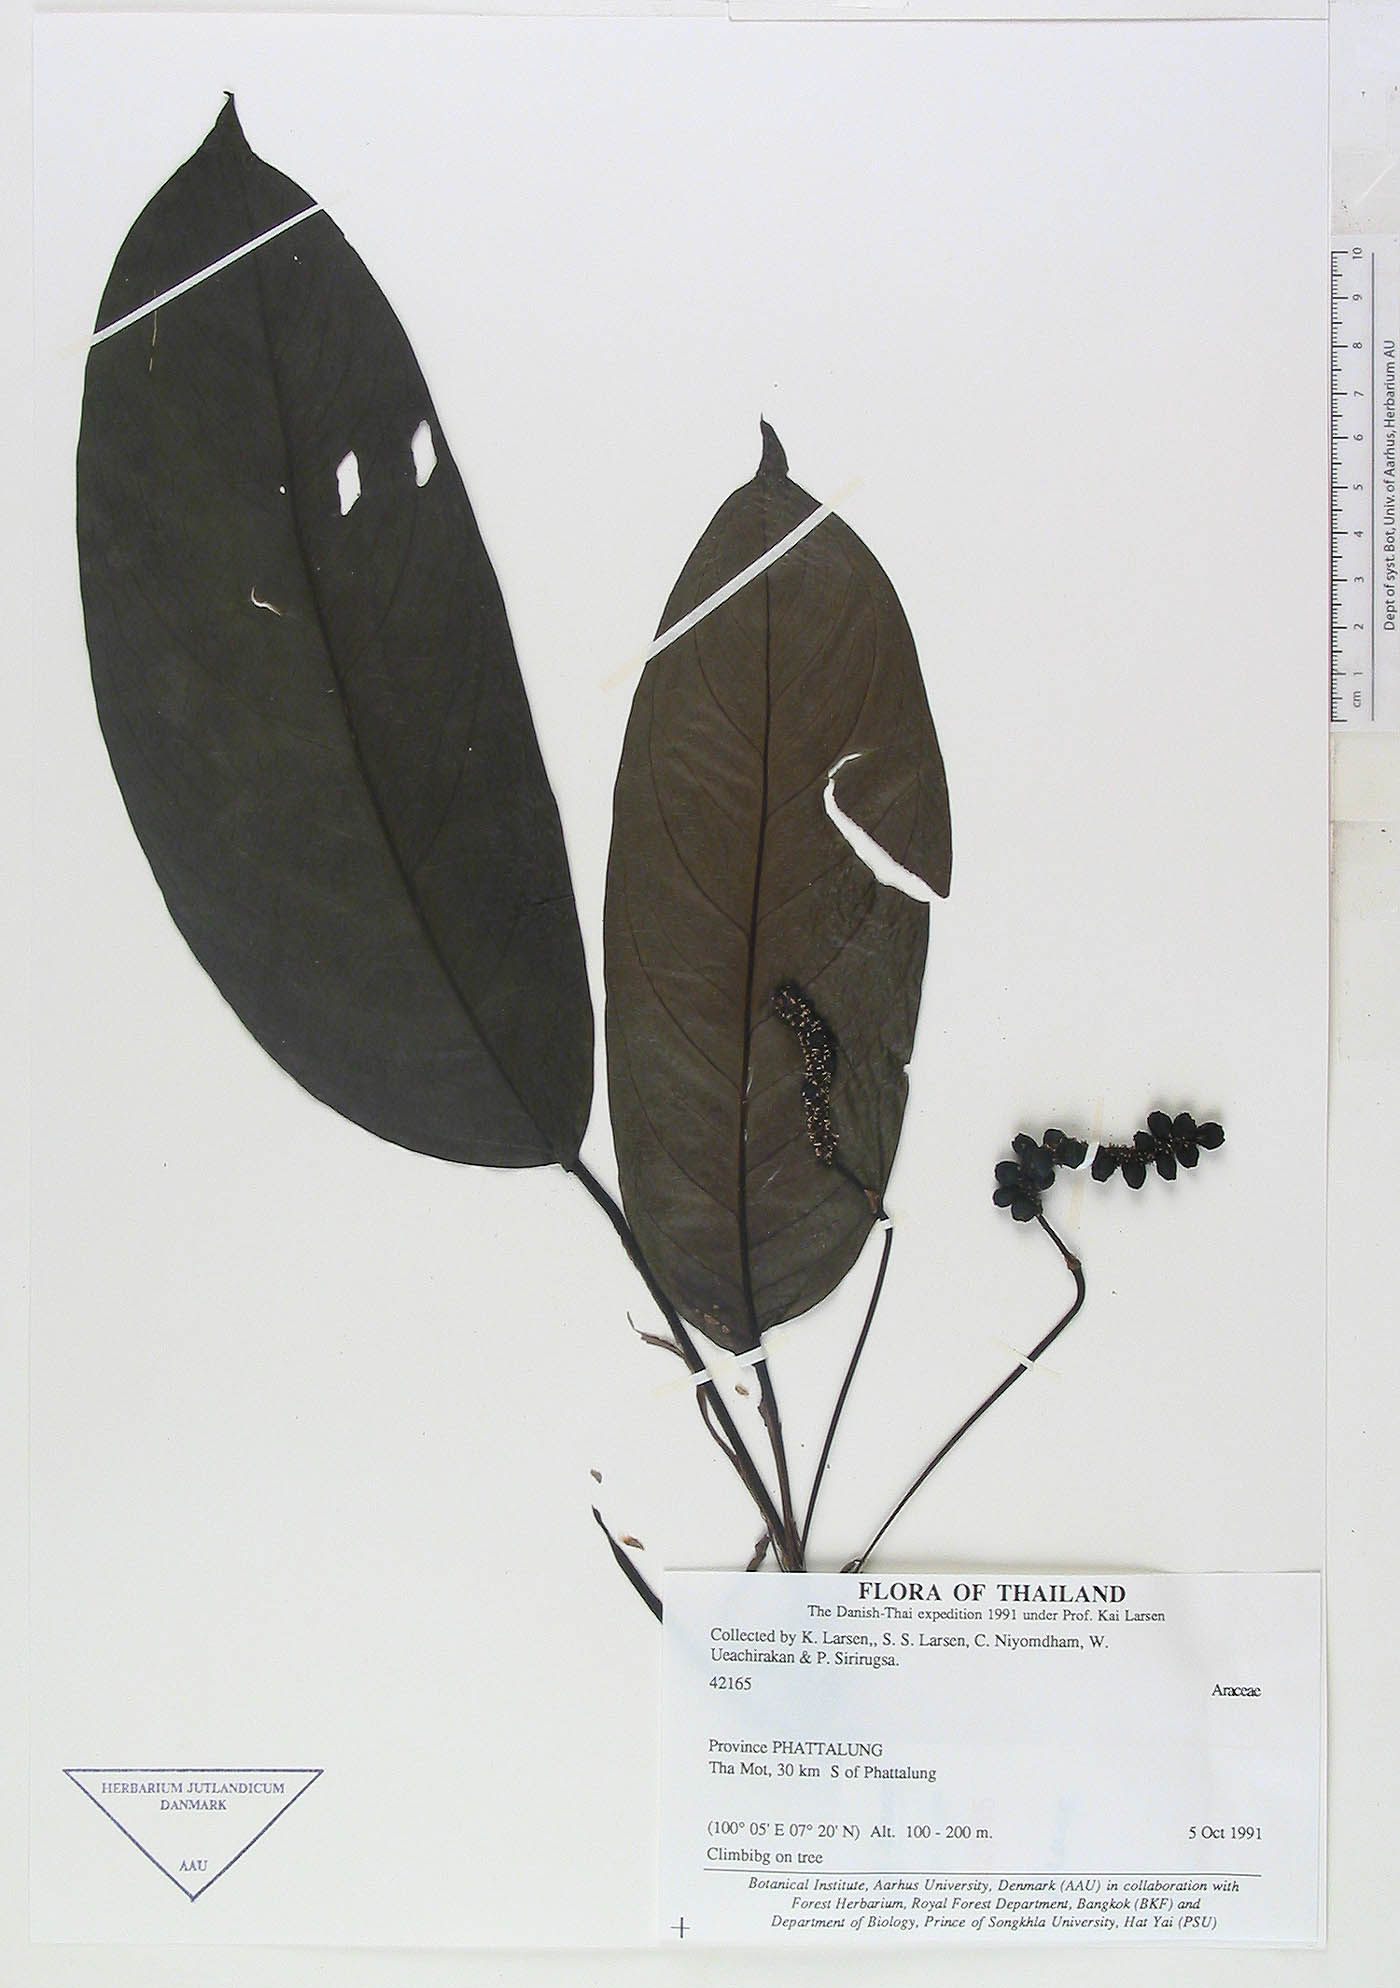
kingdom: Plantae
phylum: Tracheophyta
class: Liliopsida
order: Alismatales
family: Araceae
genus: Anadendrum
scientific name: Anadendrum marcesovaginatum
